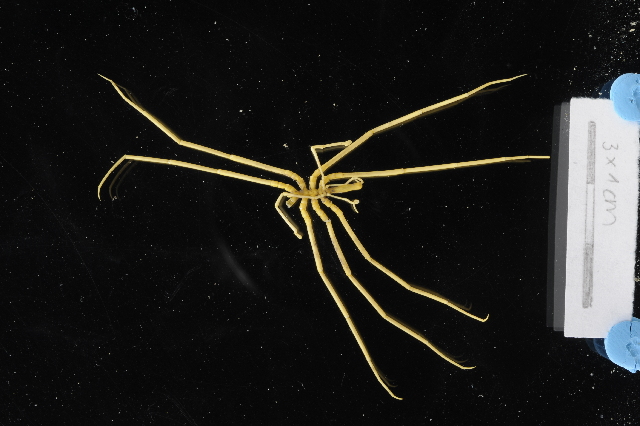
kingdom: Animalia
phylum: Arthropoda
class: Pycnogonida
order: Pantopoda
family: Colossendeidae
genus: Colossendeis
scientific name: Colossendeis drakei
